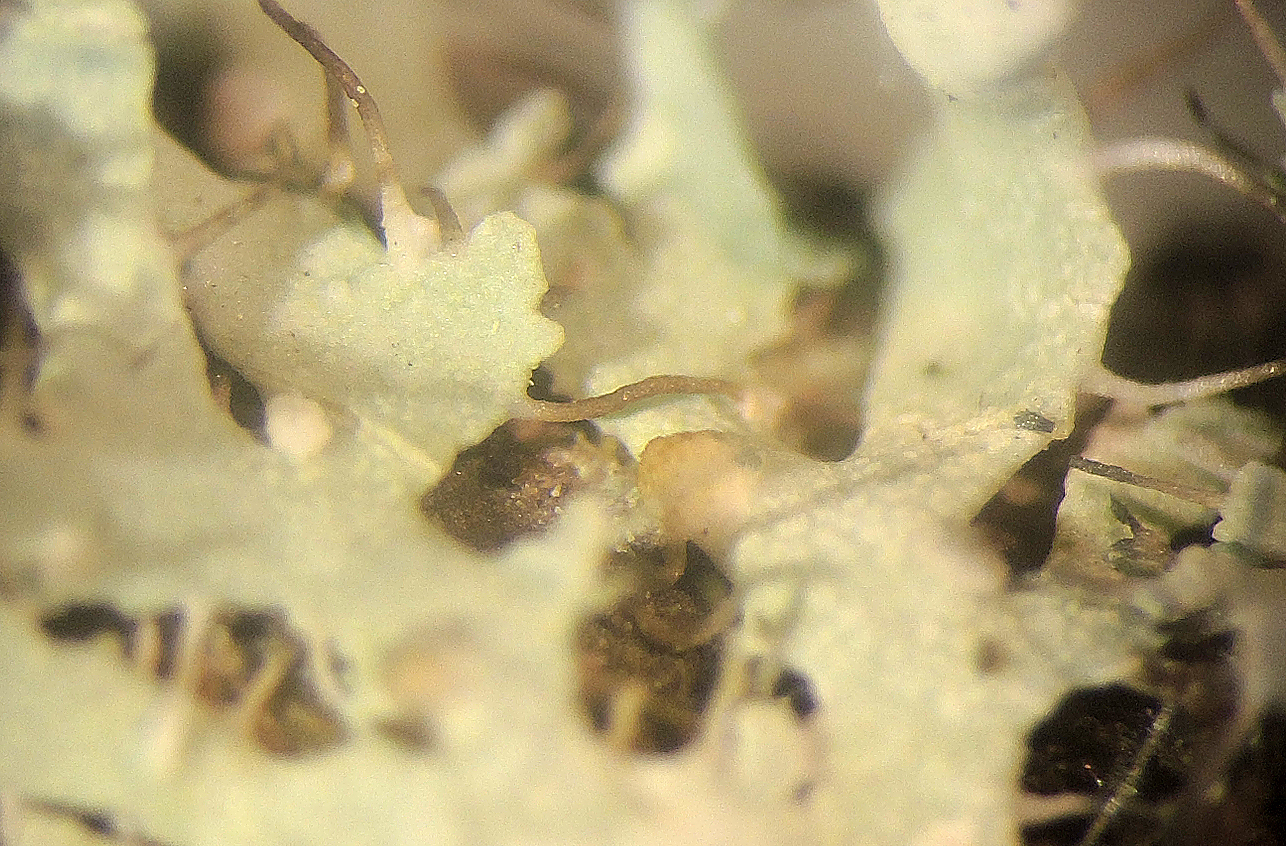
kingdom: Fungi
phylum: Basidiomycota
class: Tremellomycetes
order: Filobasidiales
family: Filobasidiaceae
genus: Zyzygomyces
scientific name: Zyzygomyces physciacearum
